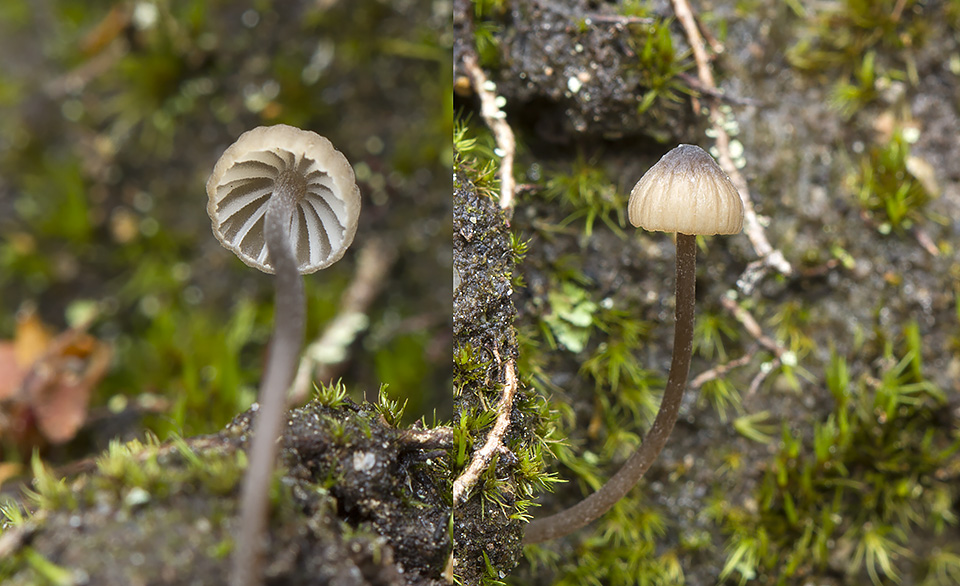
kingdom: Fungi
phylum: Basidiomycota
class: Agaricomycetes
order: Agaricales
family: Mycenaceae
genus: Mycena
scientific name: Mycena galopus
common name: hvidmælket huesvamp
